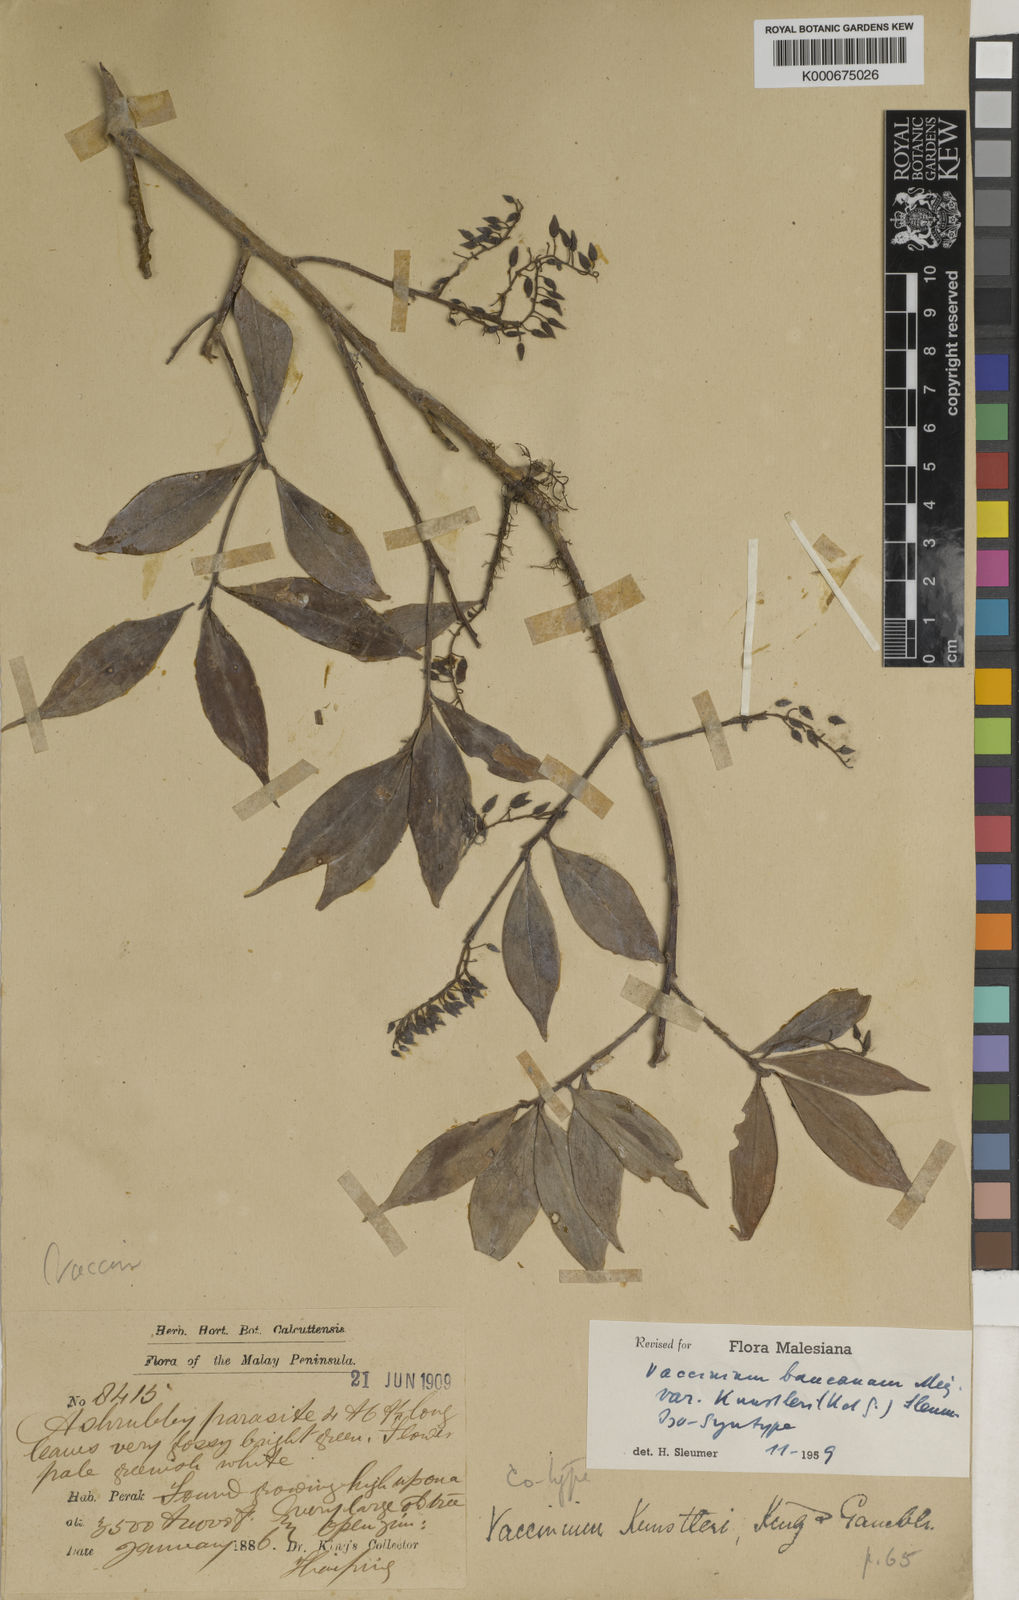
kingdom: Plantae
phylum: Tracheophyta
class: Magnoliopsida
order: Ericales
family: Ericaceae
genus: Vaccinium
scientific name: Vaccinium bancanum
